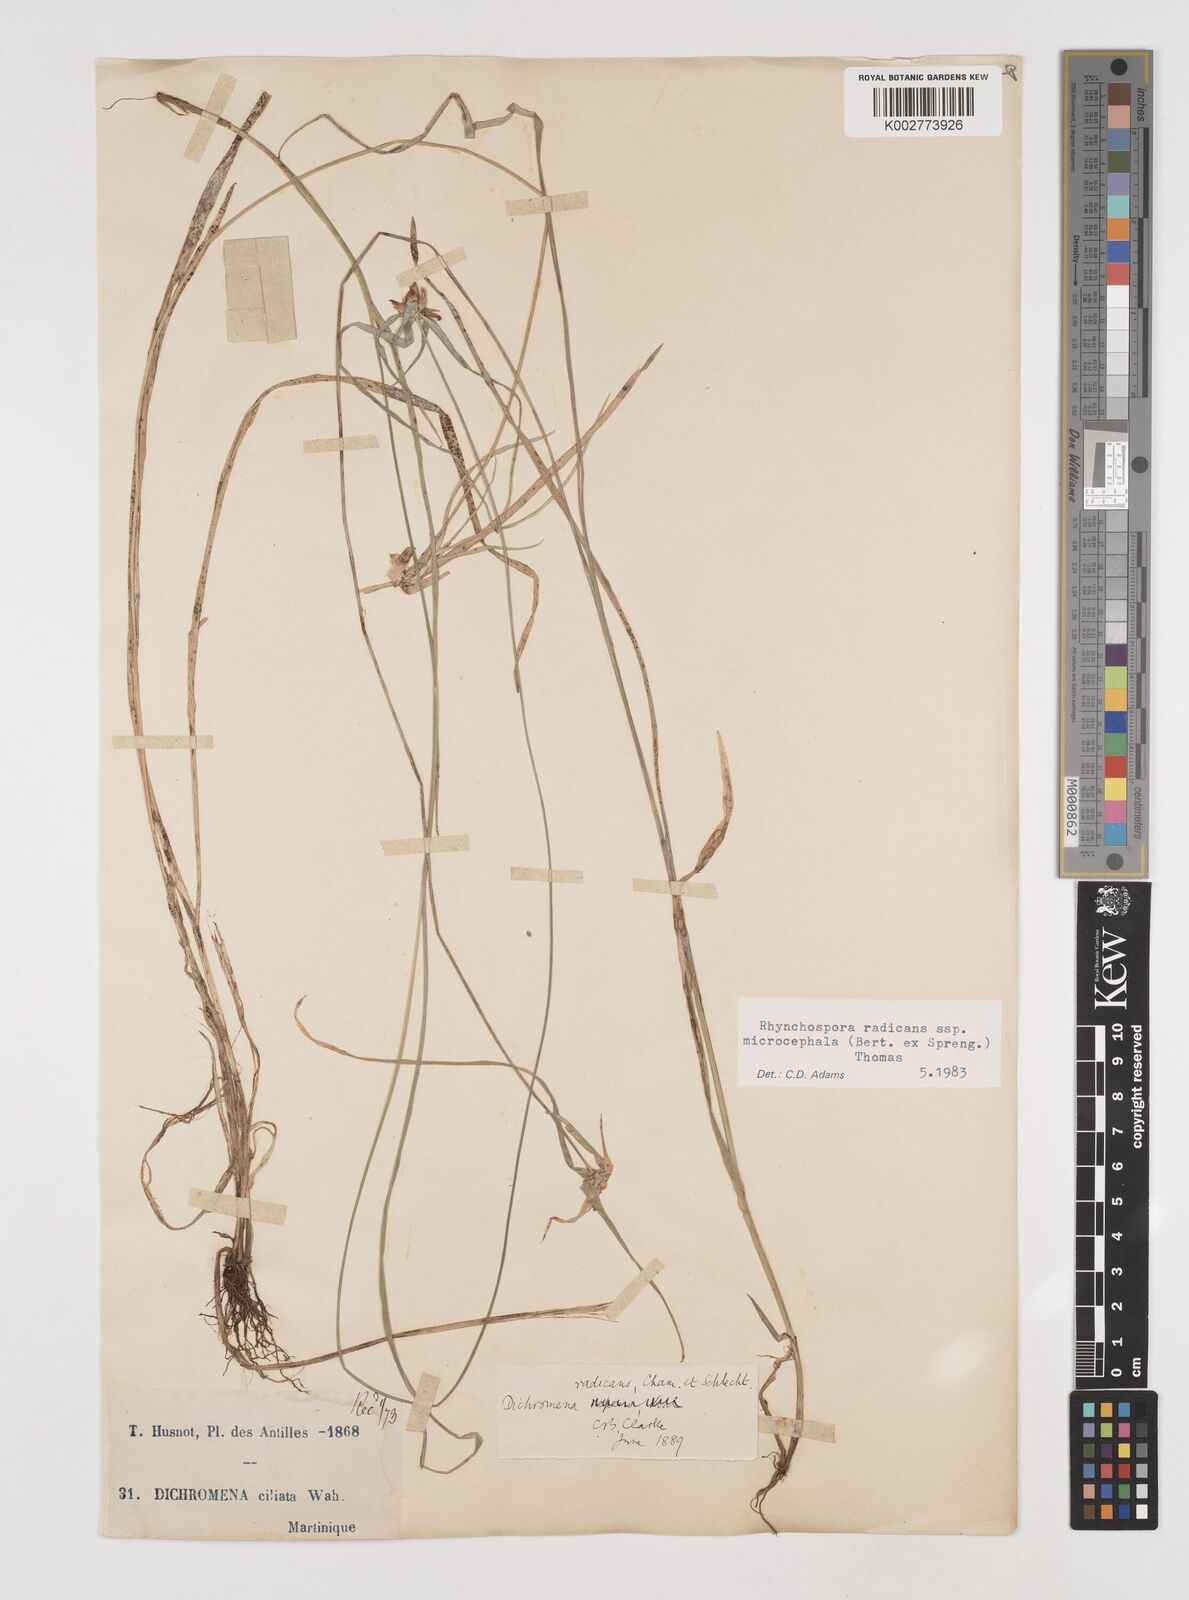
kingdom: Plantae
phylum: Tracheophyta
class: Liliopsida
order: Poales
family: Cyperaceae
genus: Rhynchospora
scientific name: Rhynchospora radicans
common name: Tropical whitetop
